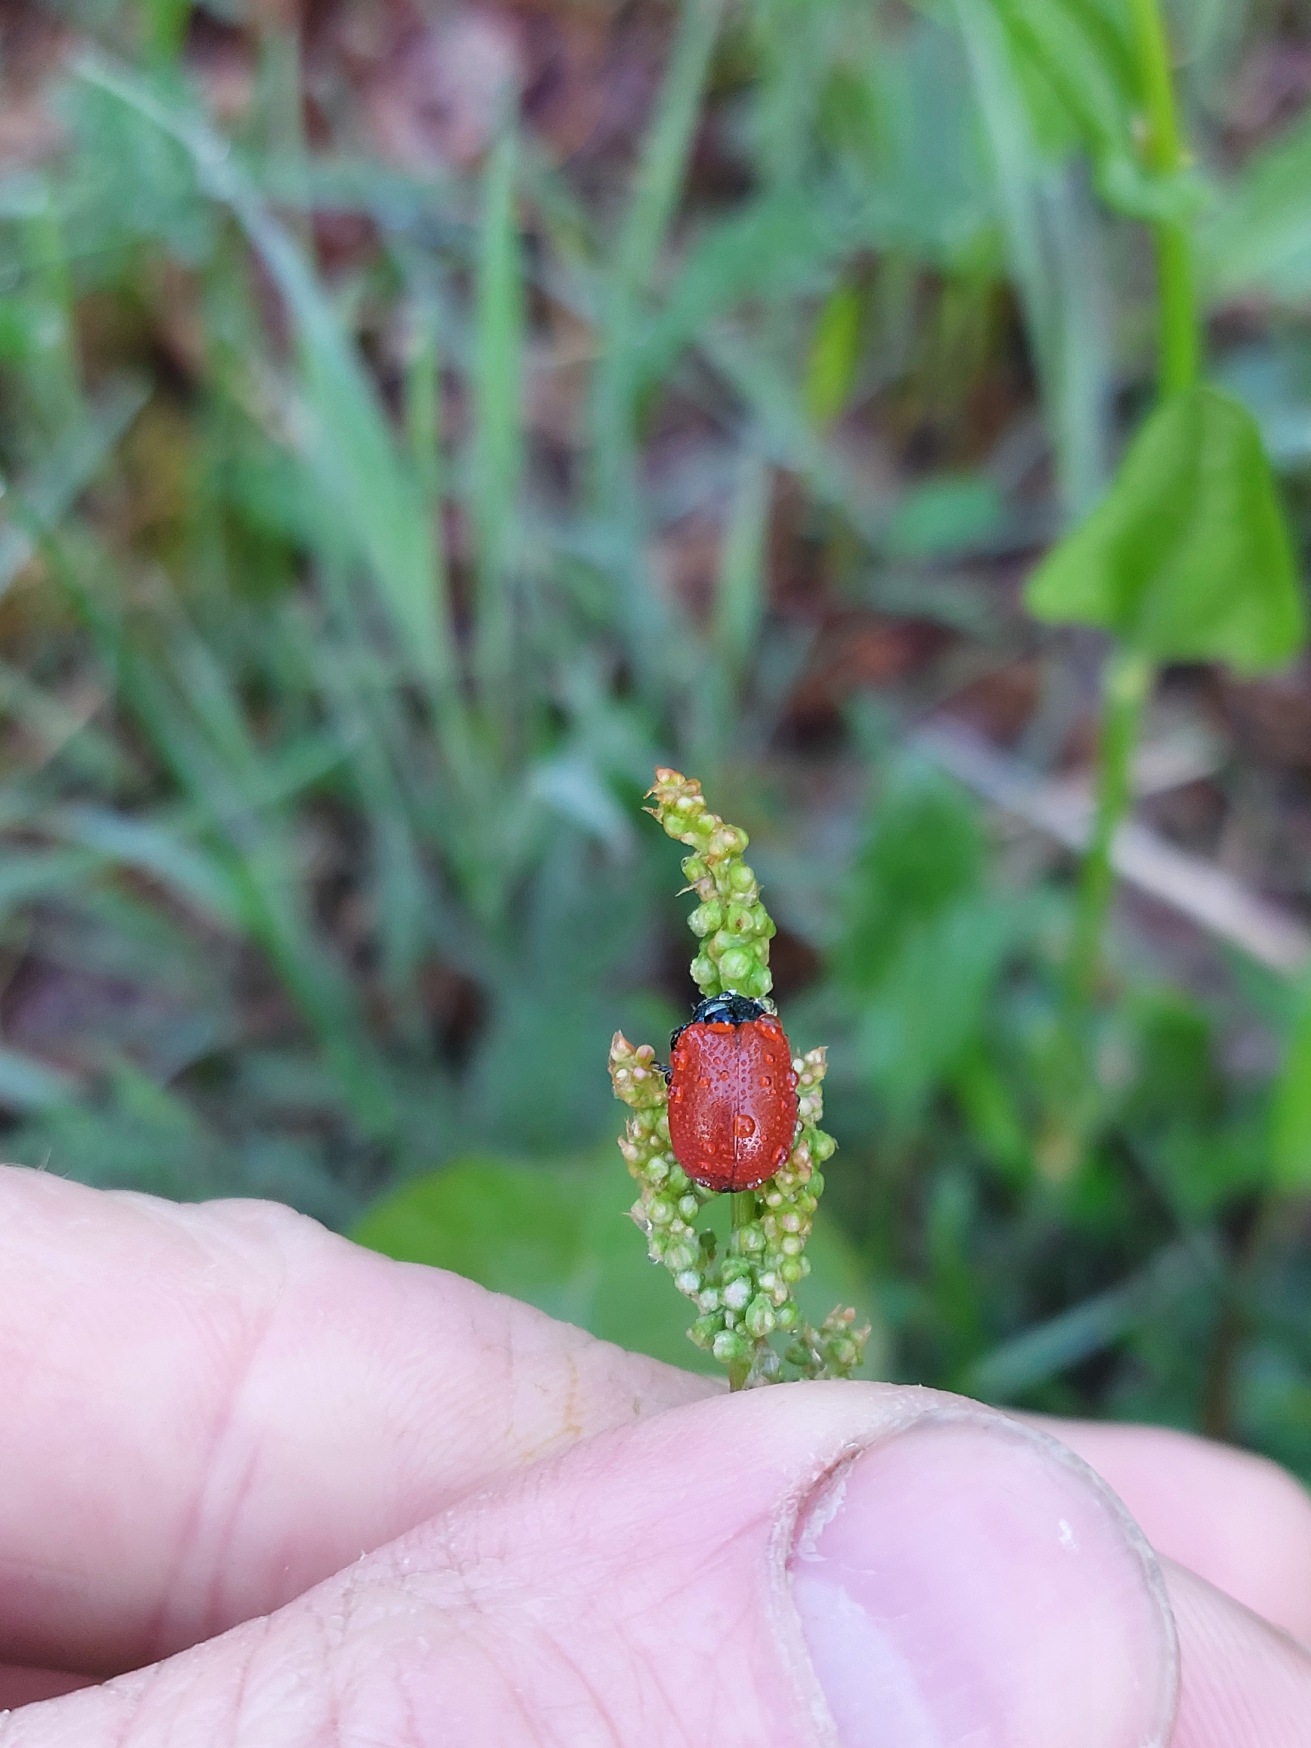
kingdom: Animalia
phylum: Arthropoda
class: Insecta
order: Coleoptera
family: Chrysomelidae
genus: Chrysomela
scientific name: Chrysomela populi
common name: Poppelbladbille
